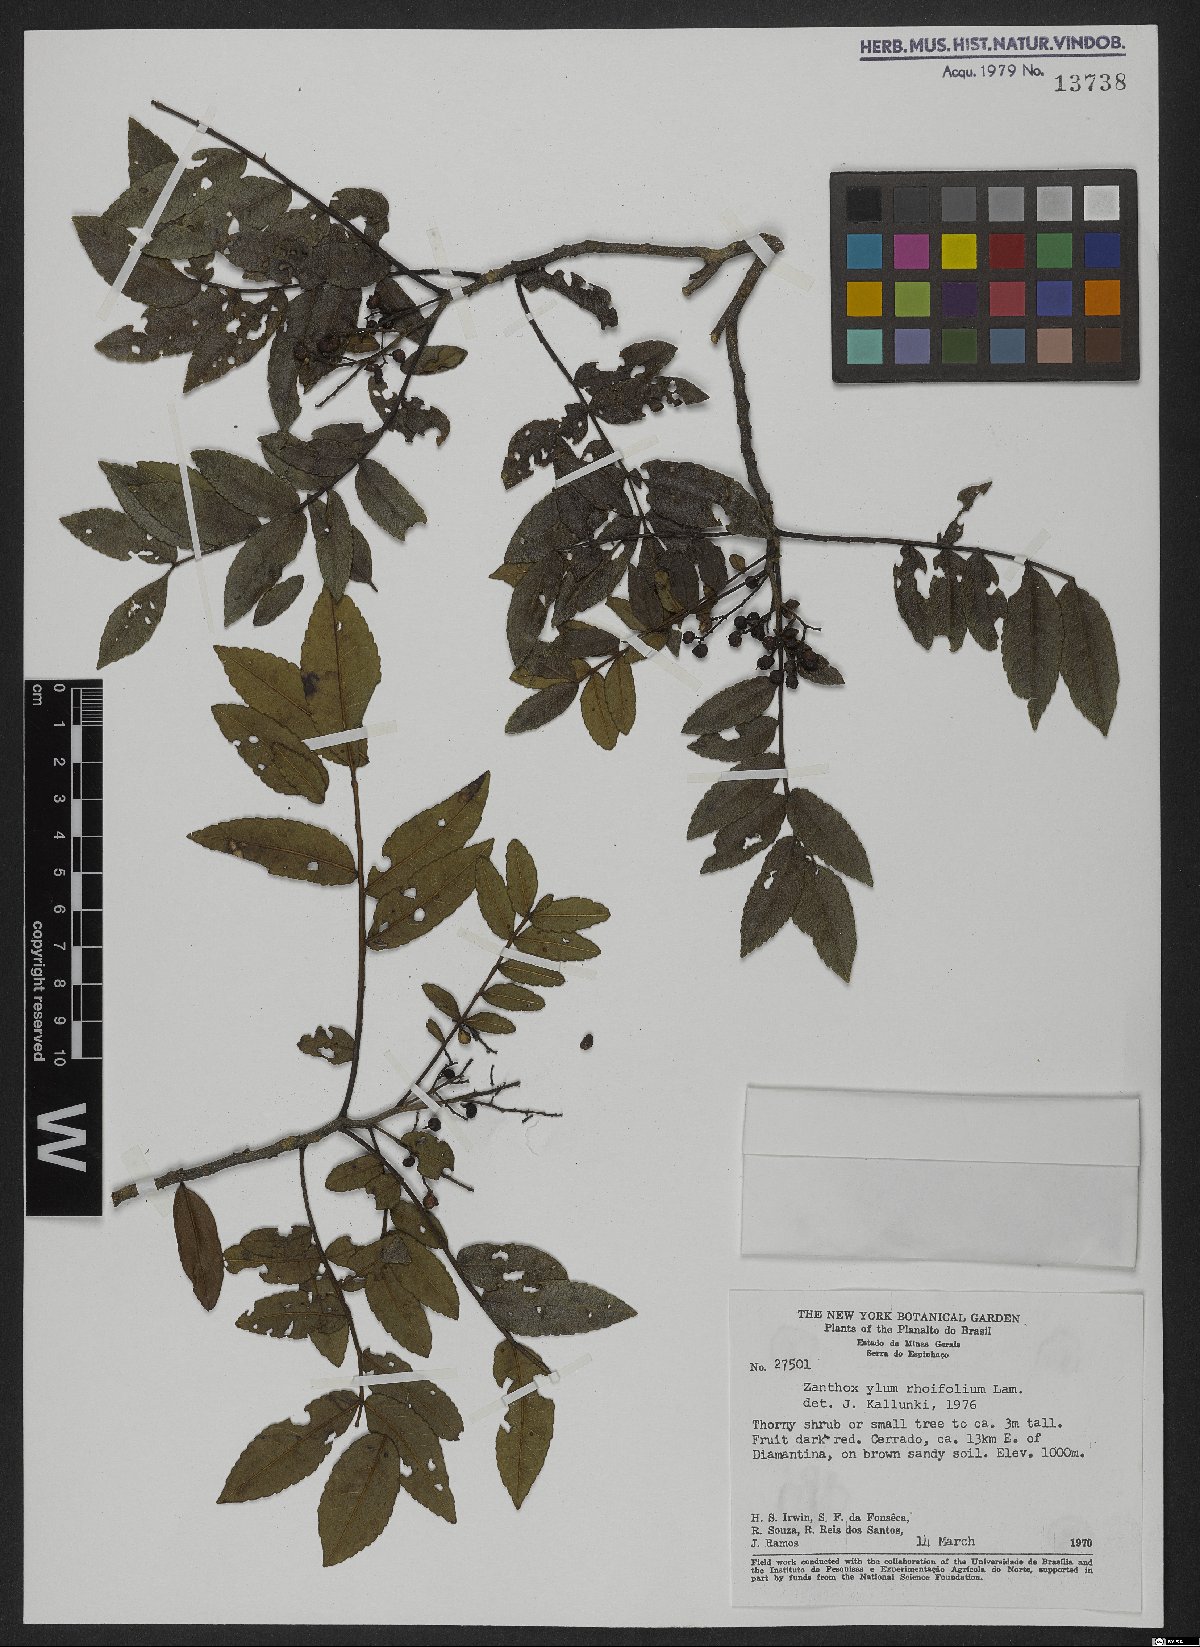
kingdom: Plantae
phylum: Tracheophyta
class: Magnoliopsida
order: Sapindales
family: Rutaceae
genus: Zanthoxylum
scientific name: Zanthoxylum rhoifolium
